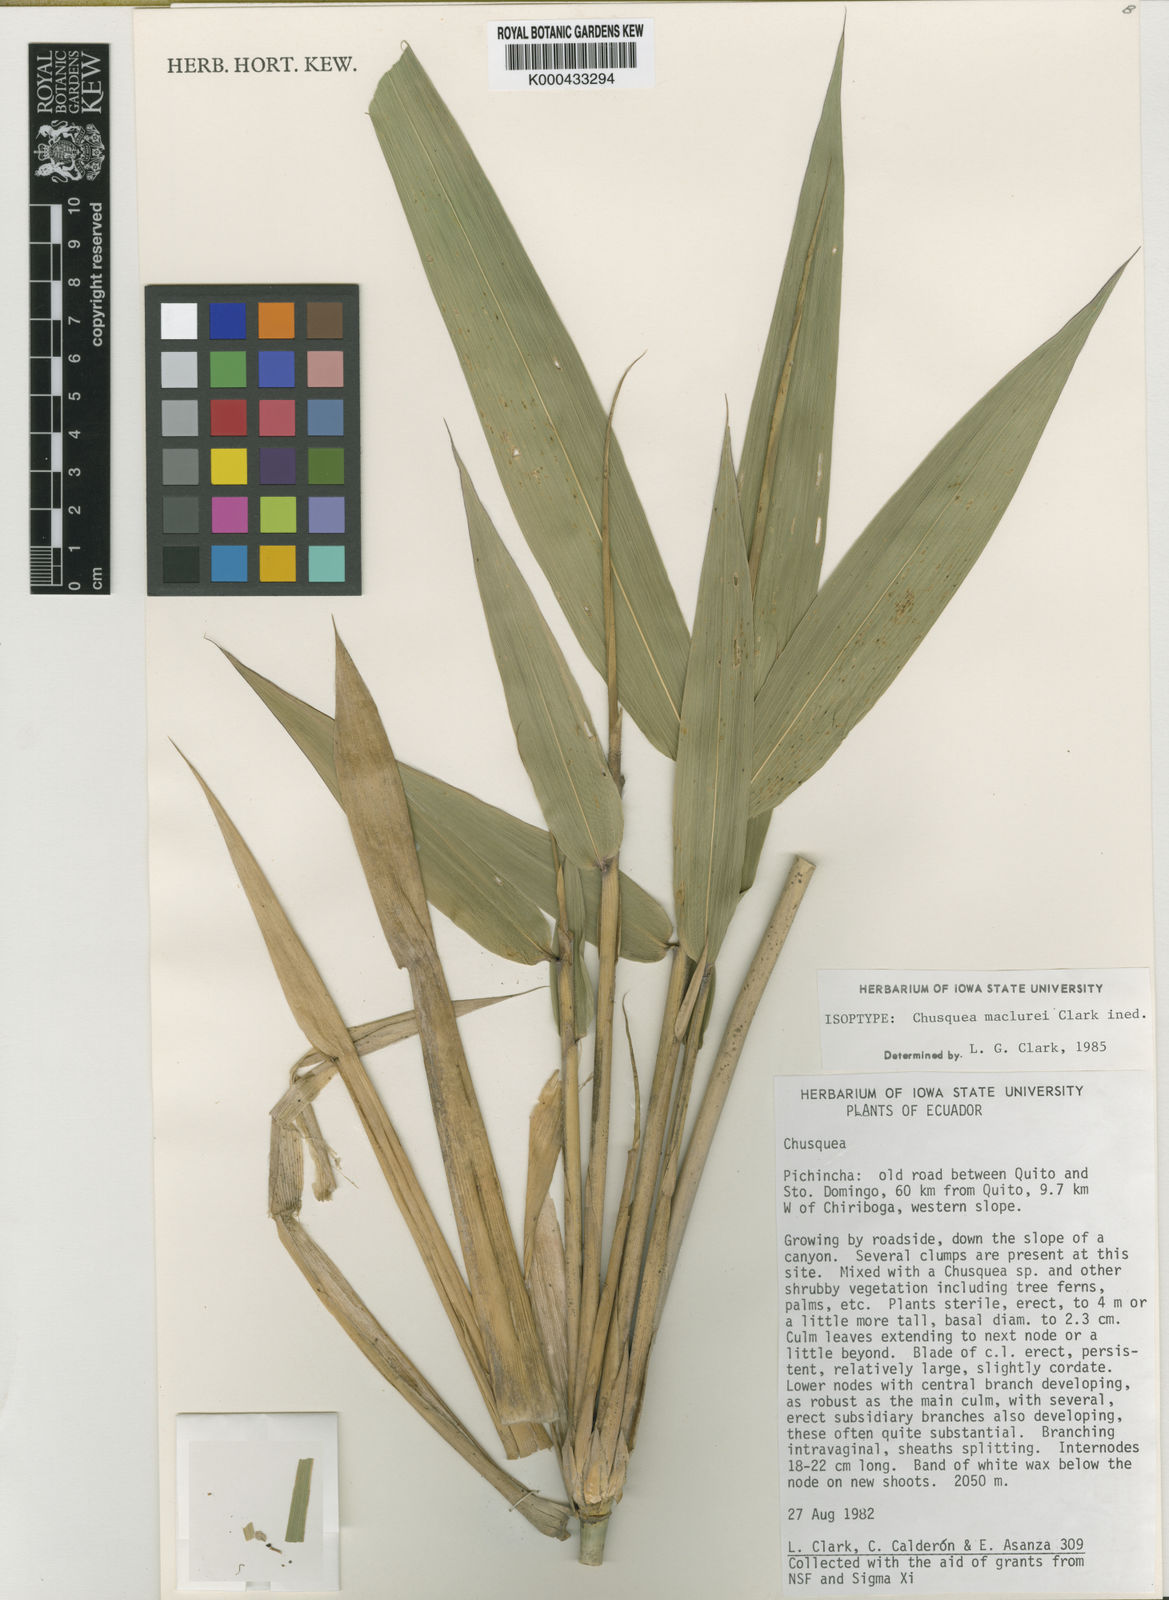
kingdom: Plantae
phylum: Tracheophyta
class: Liliopsida
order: Poales
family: Poaceae
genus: Chusquea
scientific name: Chusquea maclurei
